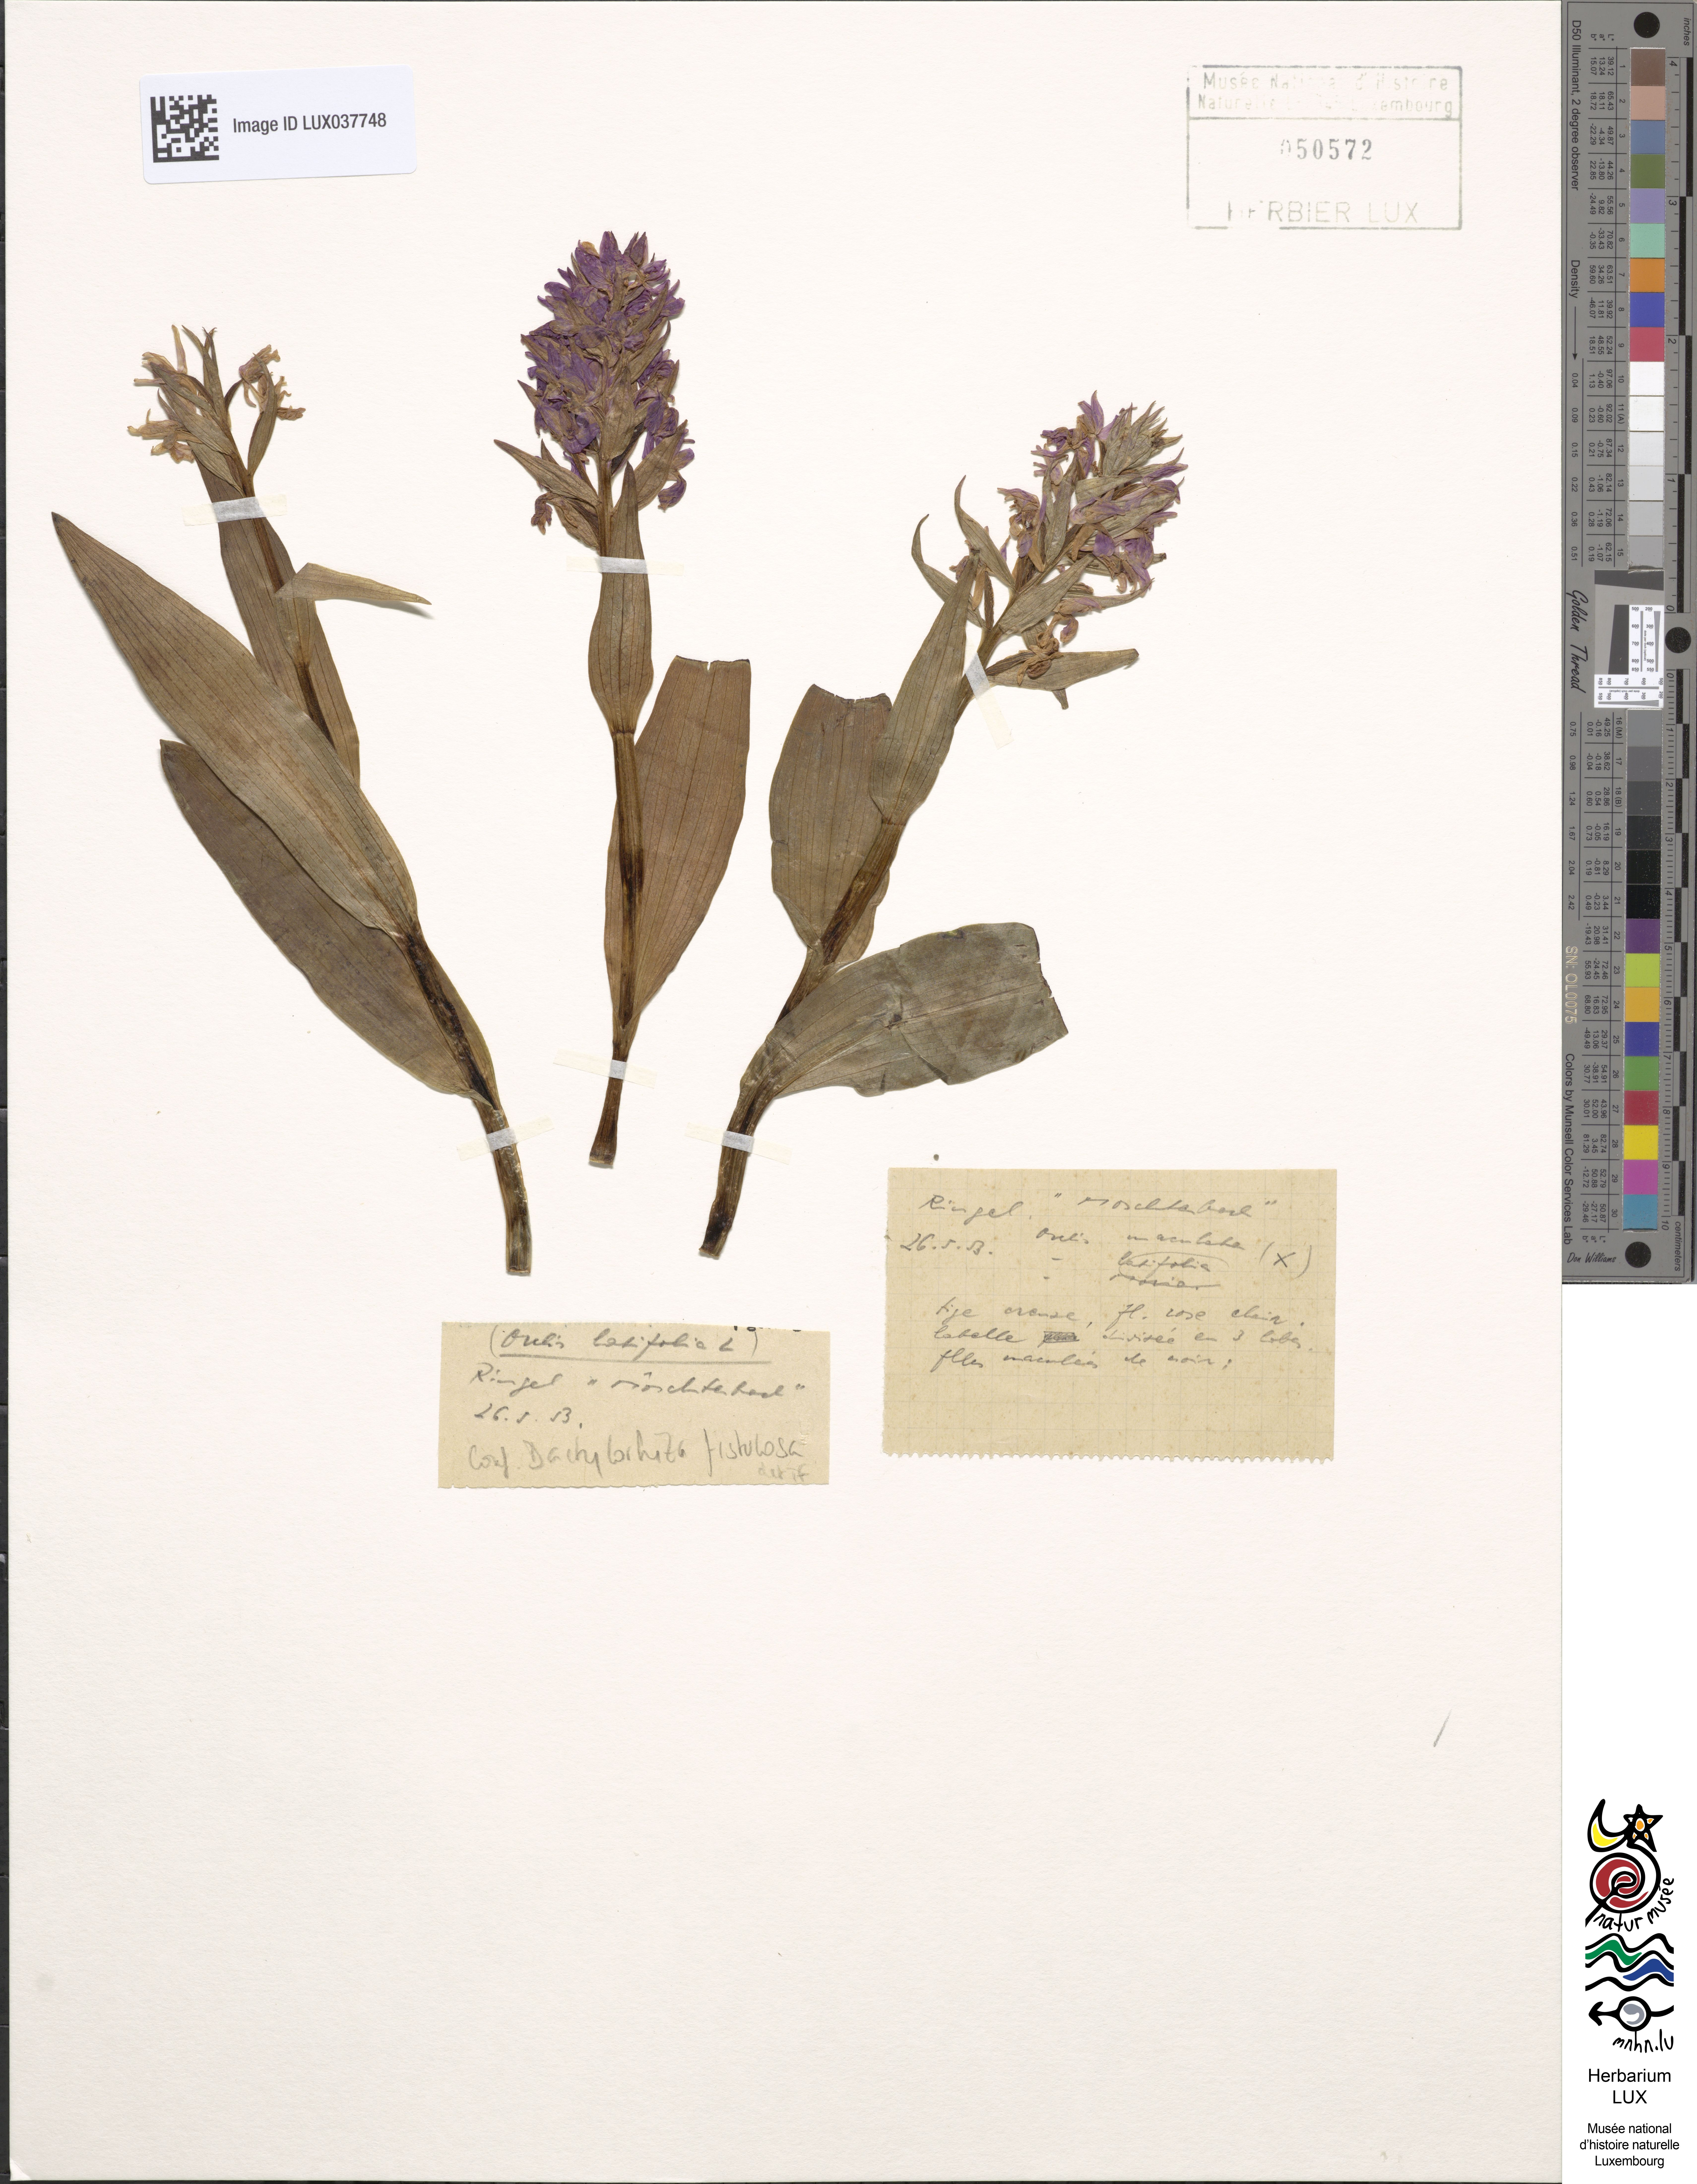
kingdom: Plantae
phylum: Tracheophyta
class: Liliopsida
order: Asparagales
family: Orchidaceae
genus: Dactylorhiza
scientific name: Dactylorhiza incarnata
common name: Early marsh-orchid
